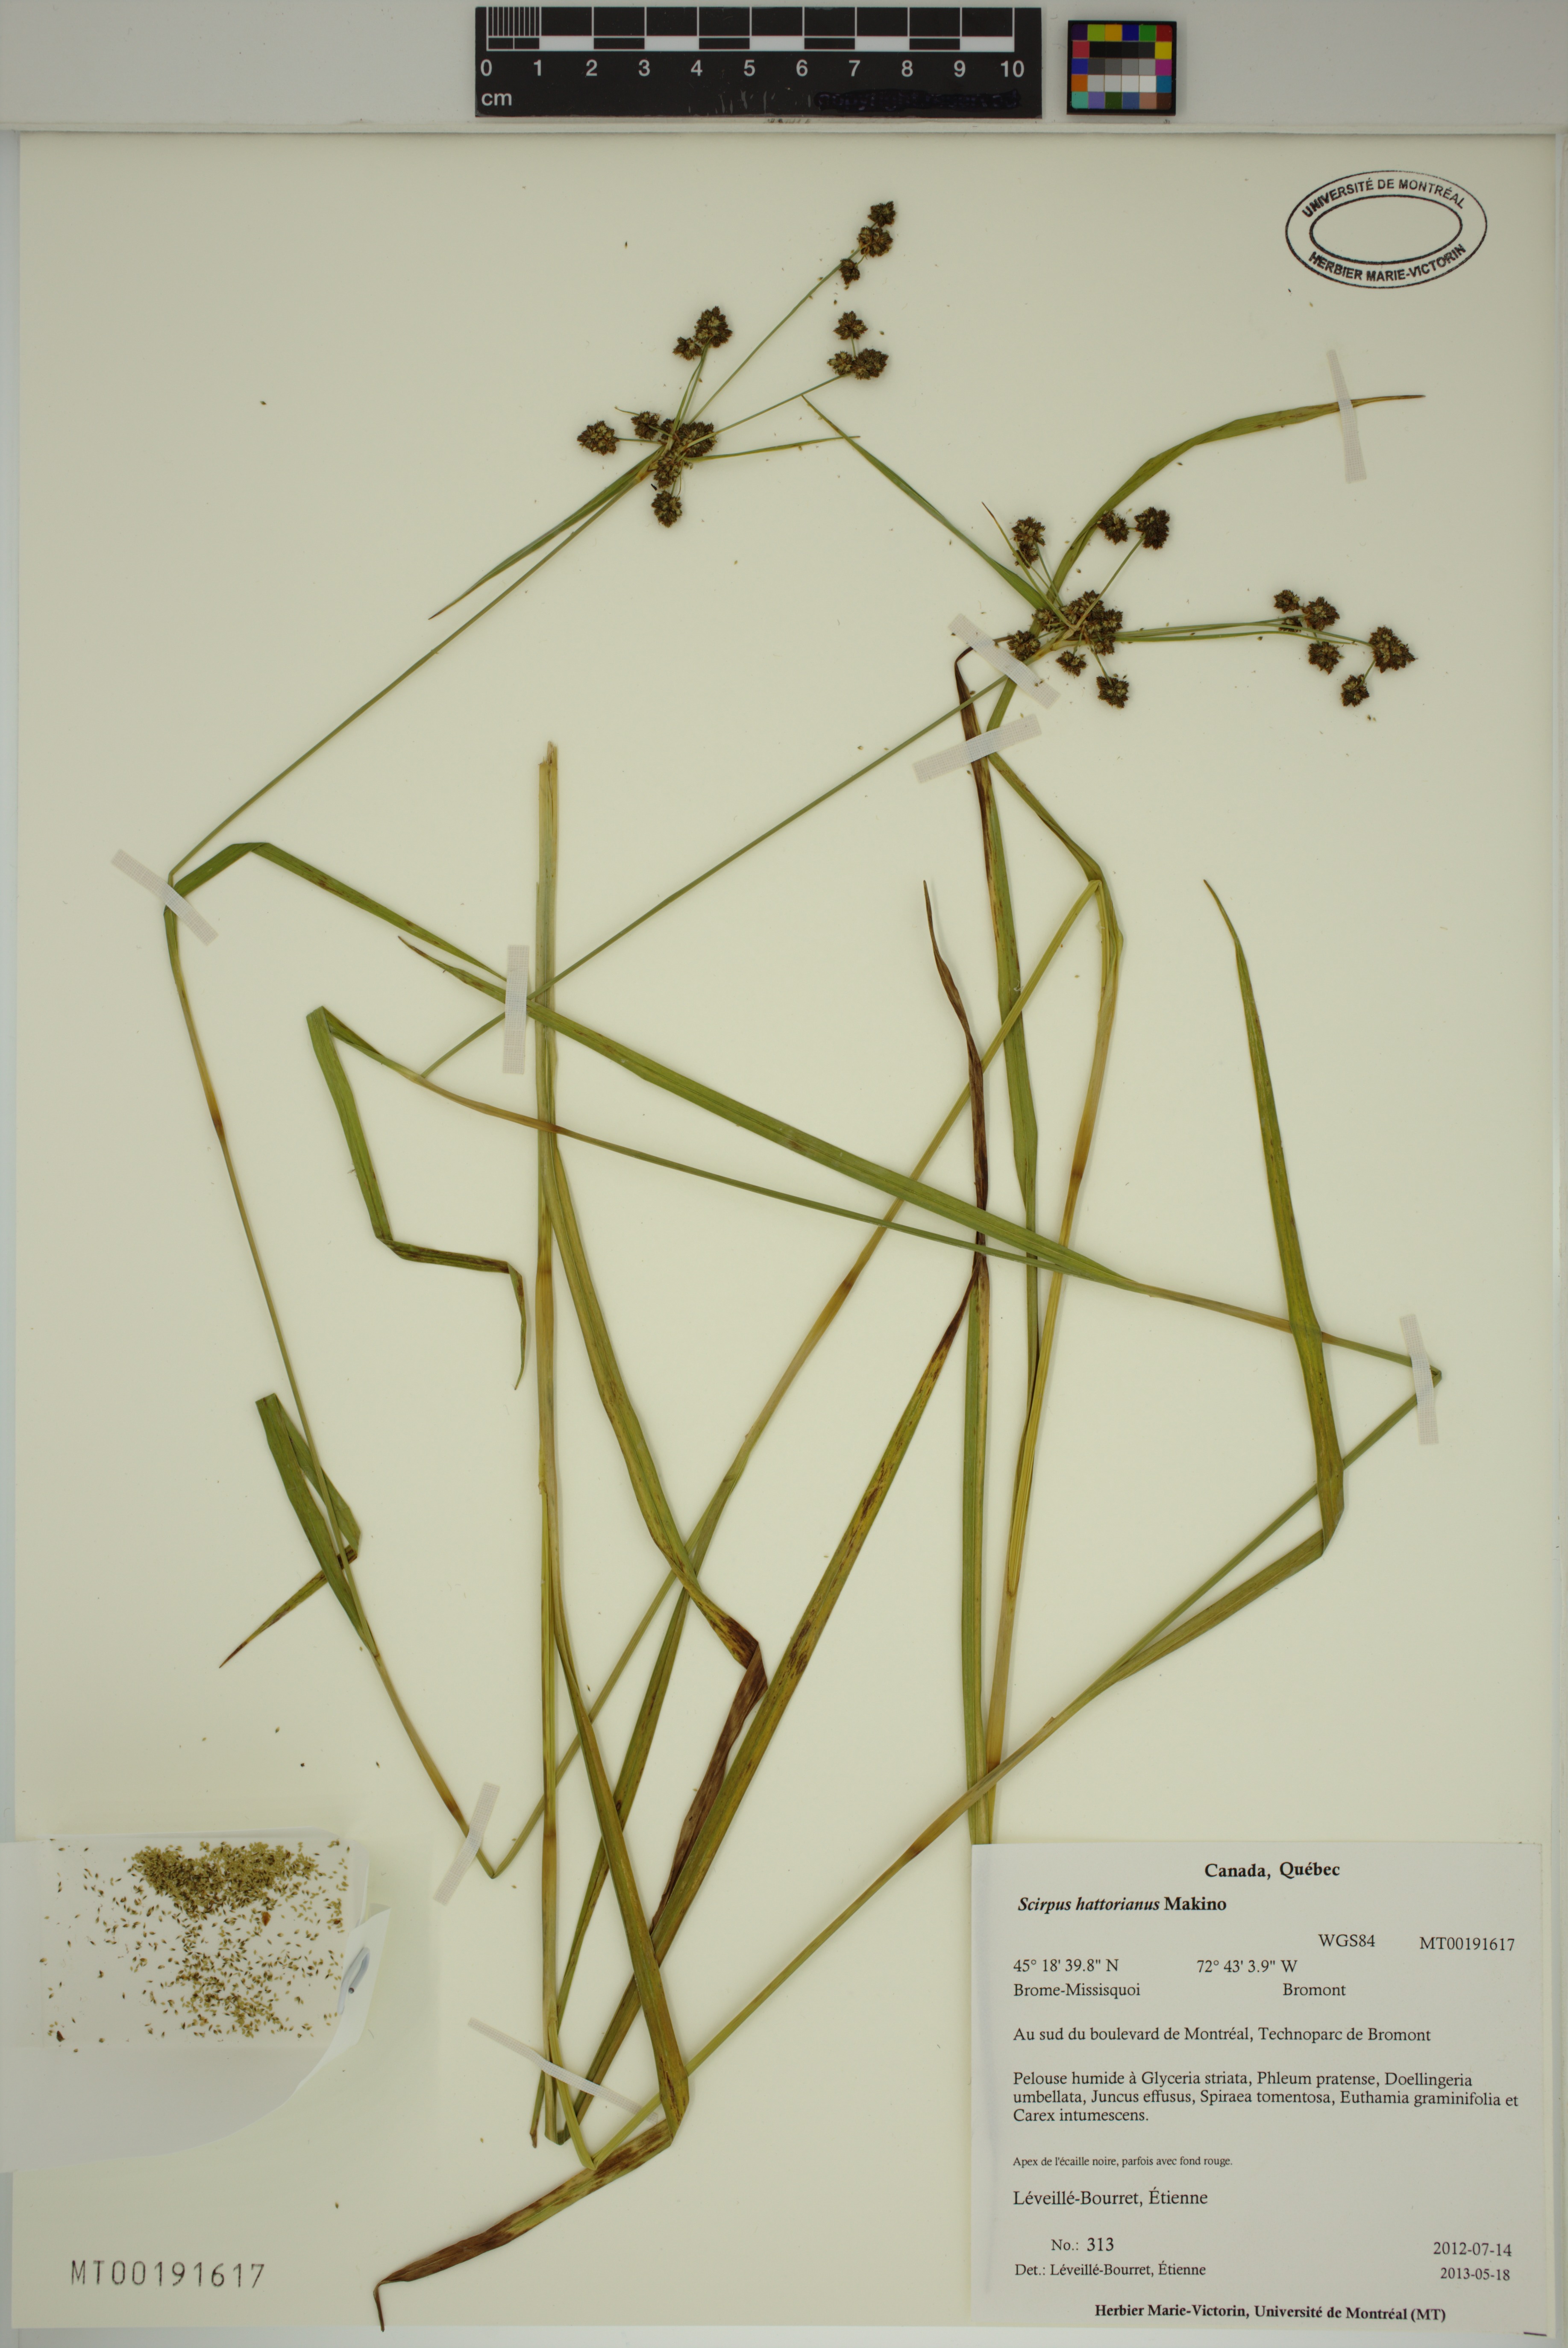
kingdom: Plantae
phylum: Tracheophyta
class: Liliopsida
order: Poales
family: Cyperaceae
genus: Scirpus
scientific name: Scirpus hattorianus
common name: Early dark-green bulrush
